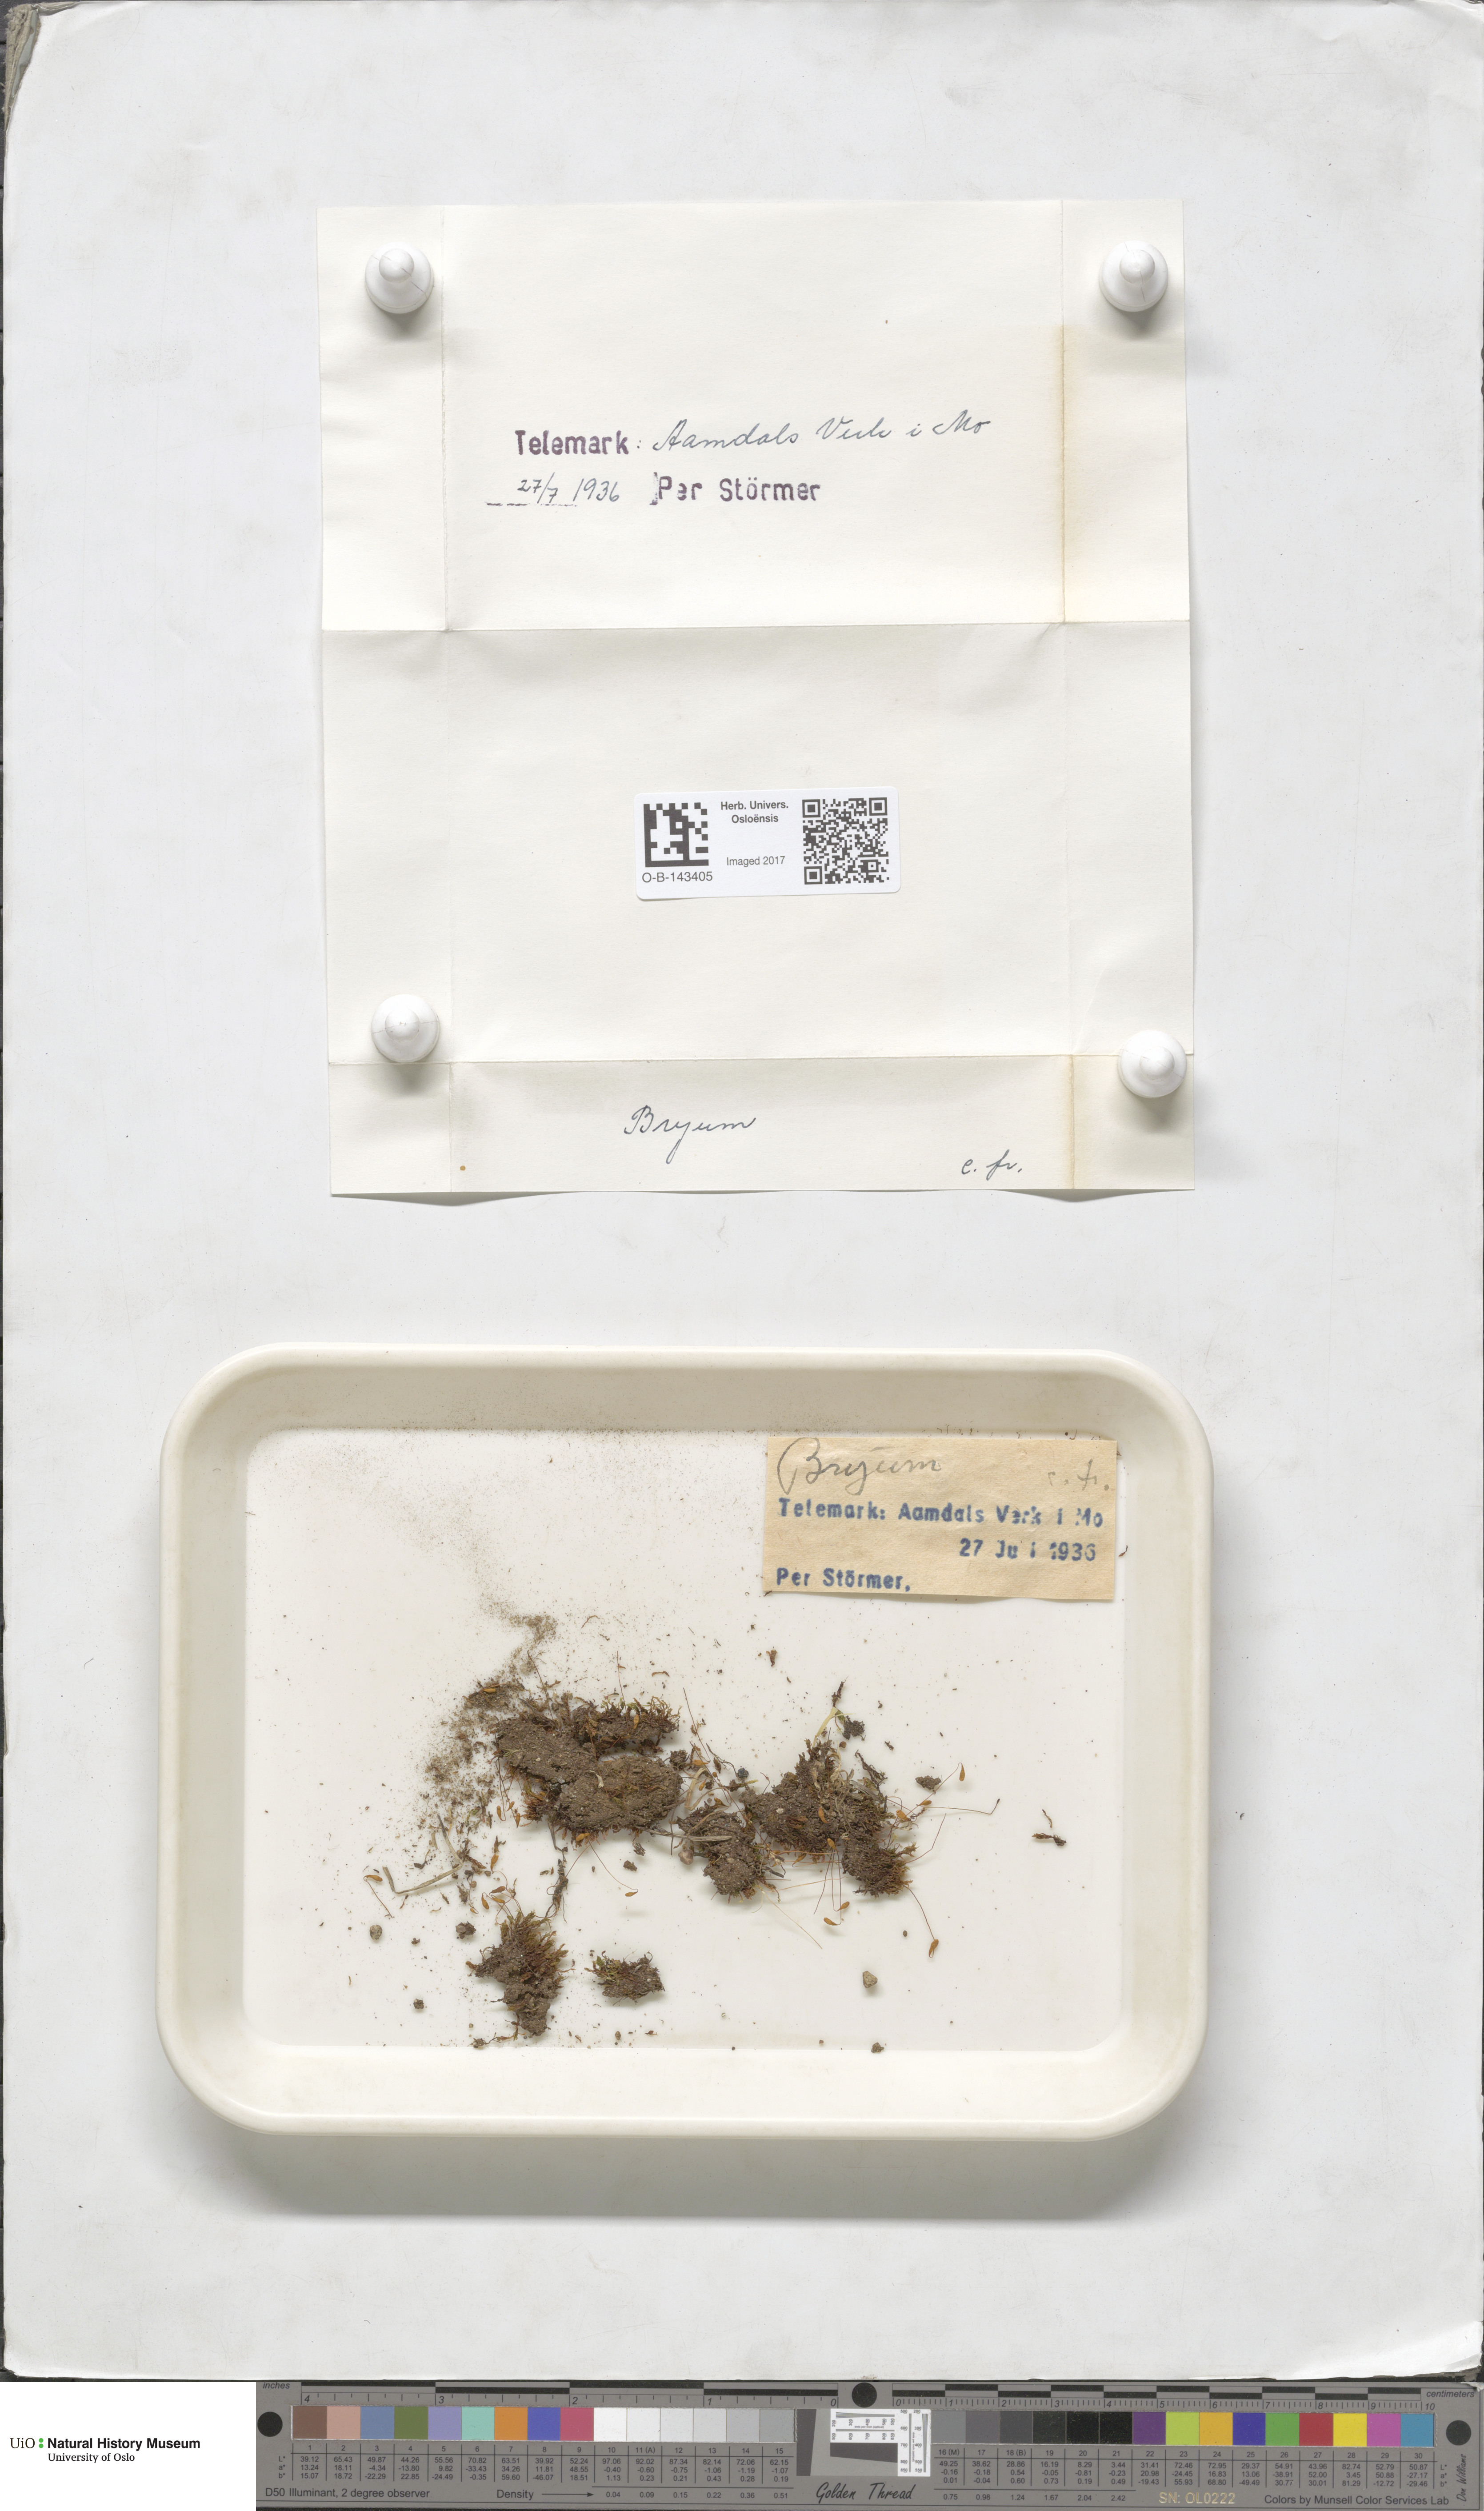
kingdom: Plantae
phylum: Bryophyta
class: Bryopsida
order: Bryales
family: Bryaceae
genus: Bryum
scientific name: Bryum
